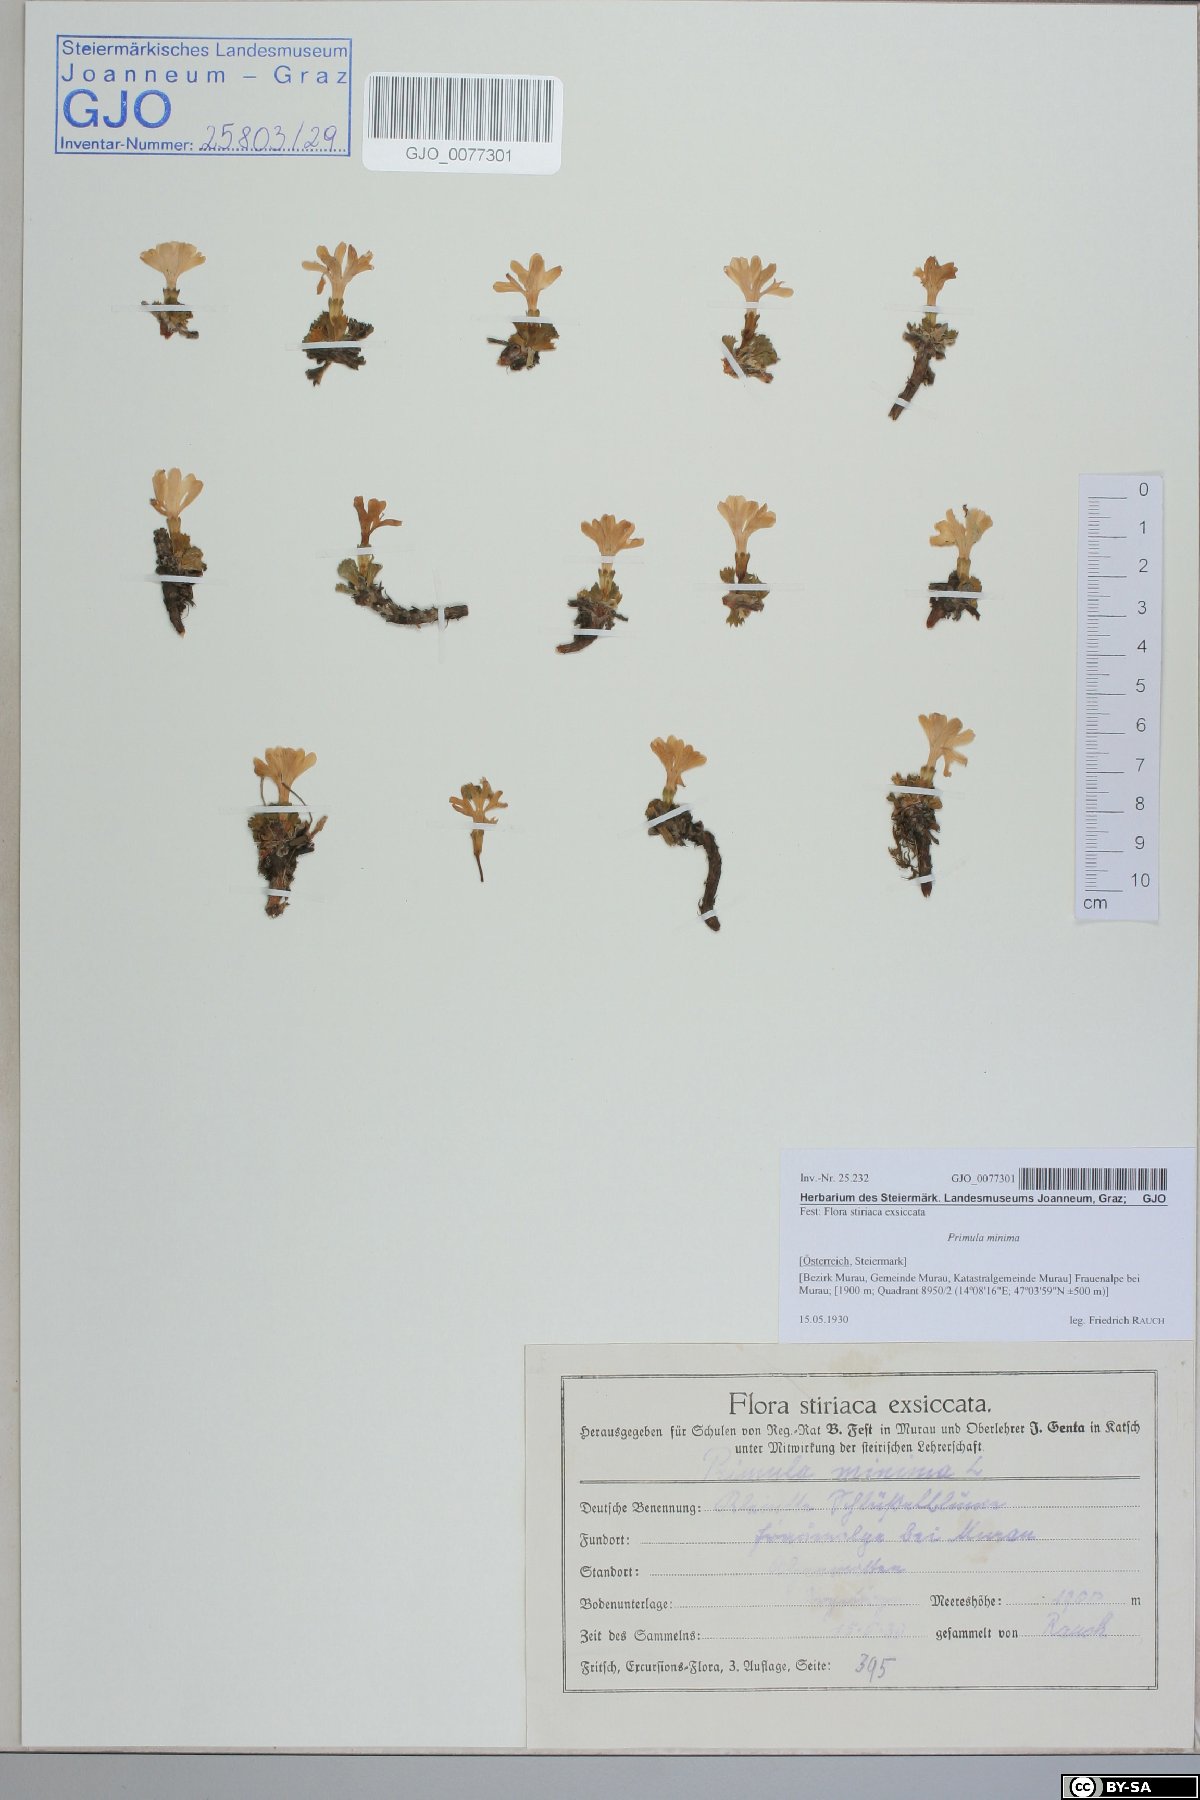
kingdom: Plantae
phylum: Tracheophyta
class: Magnoliopsida
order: Ericales
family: Primulaceae
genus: Primula
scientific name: Primula minima
